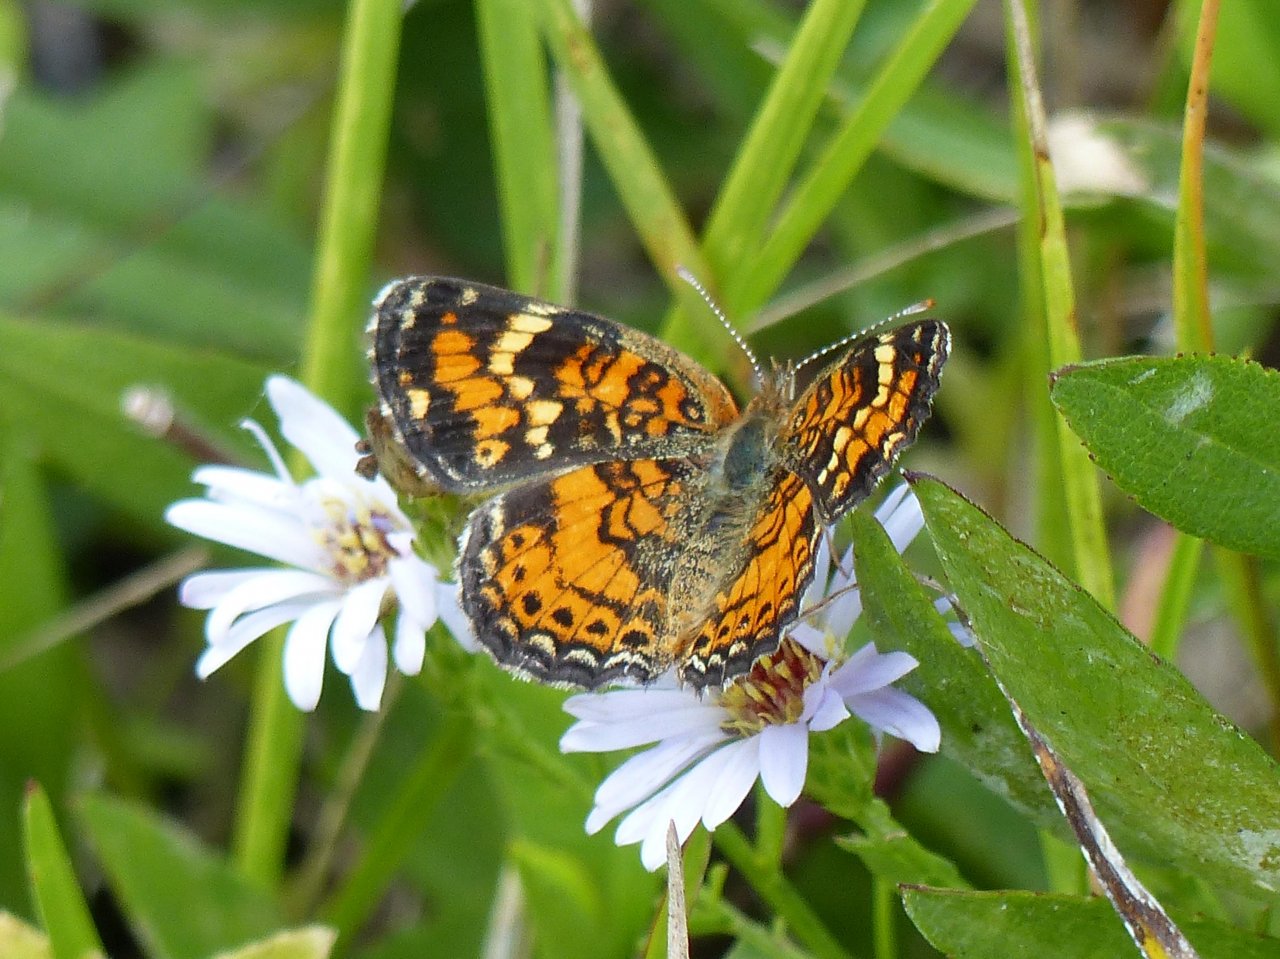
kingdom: Animalia
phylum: Arthropoda
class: Insecta
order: Lepidoptera
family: Nymphalidae
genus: Phyciodes
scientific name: Phyciodes phaon
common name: Phaon Crescent
